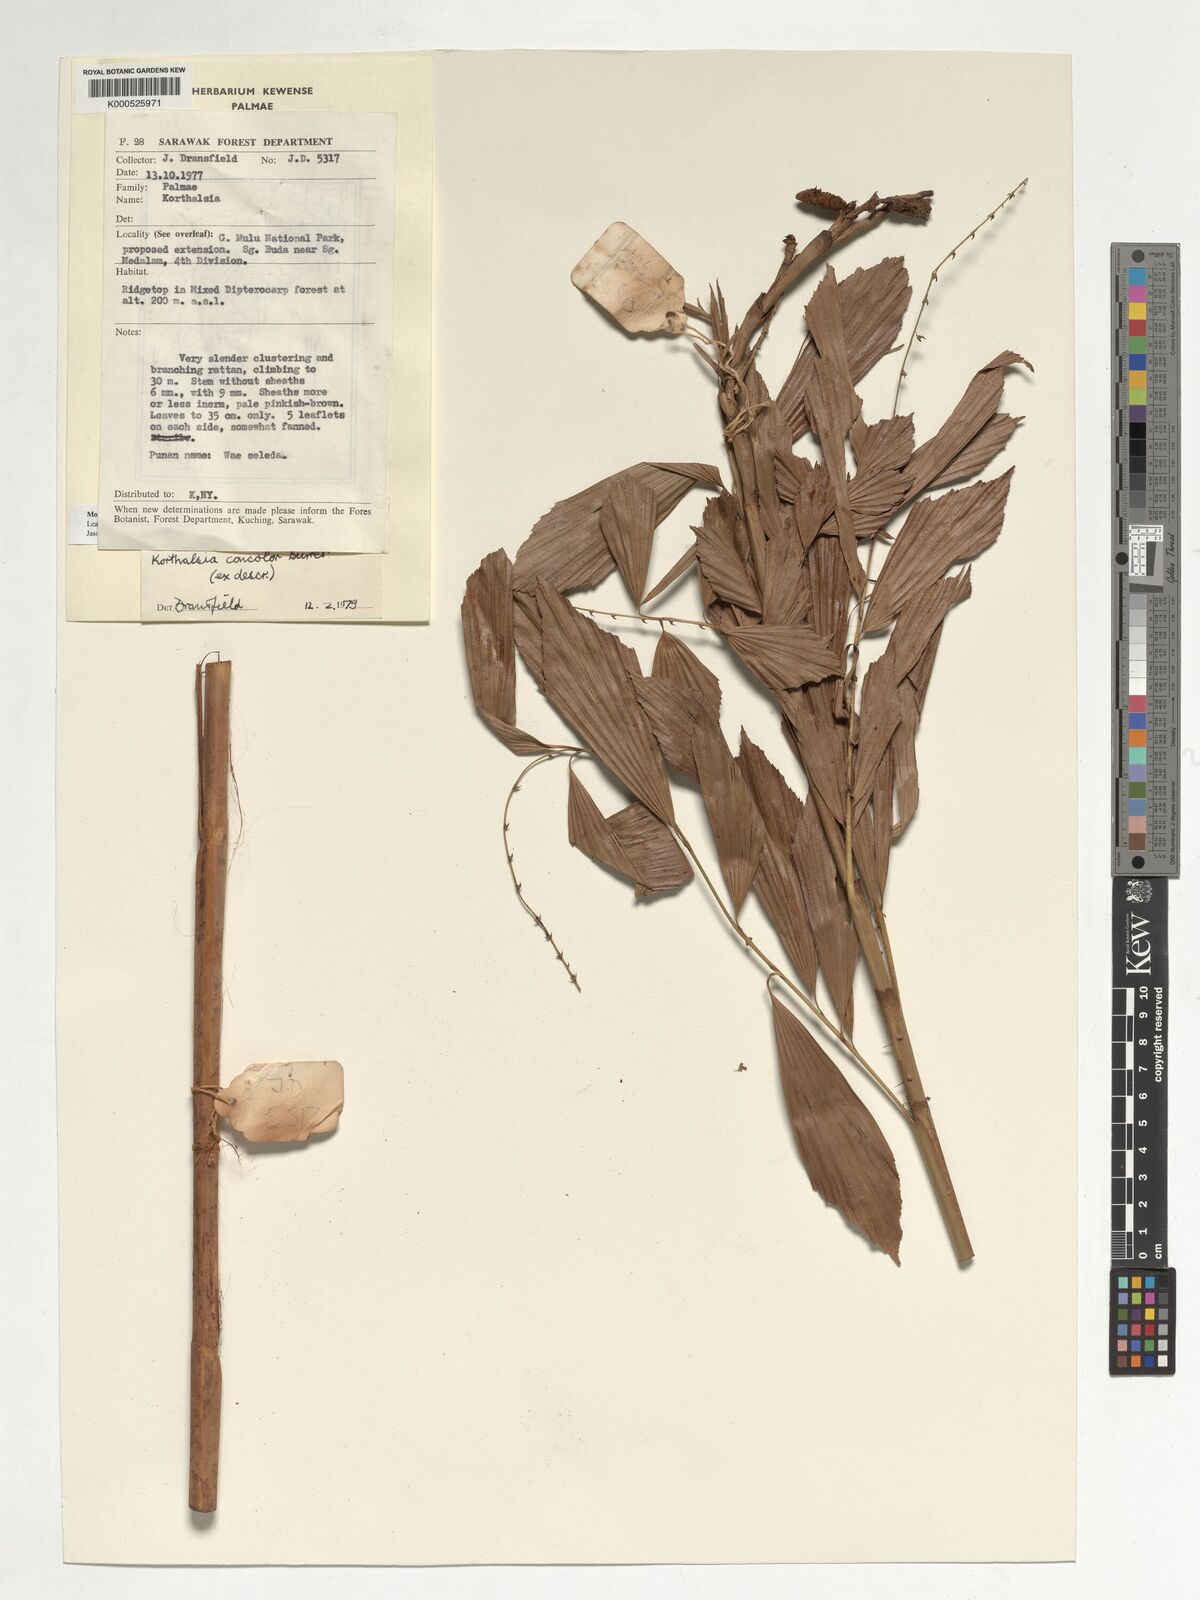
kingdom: Plantae
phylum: Tracheophyta
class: Liliopsida
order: Arecales
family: Arecaceae
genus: Korthalsia
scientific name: Korthalsia concolor
